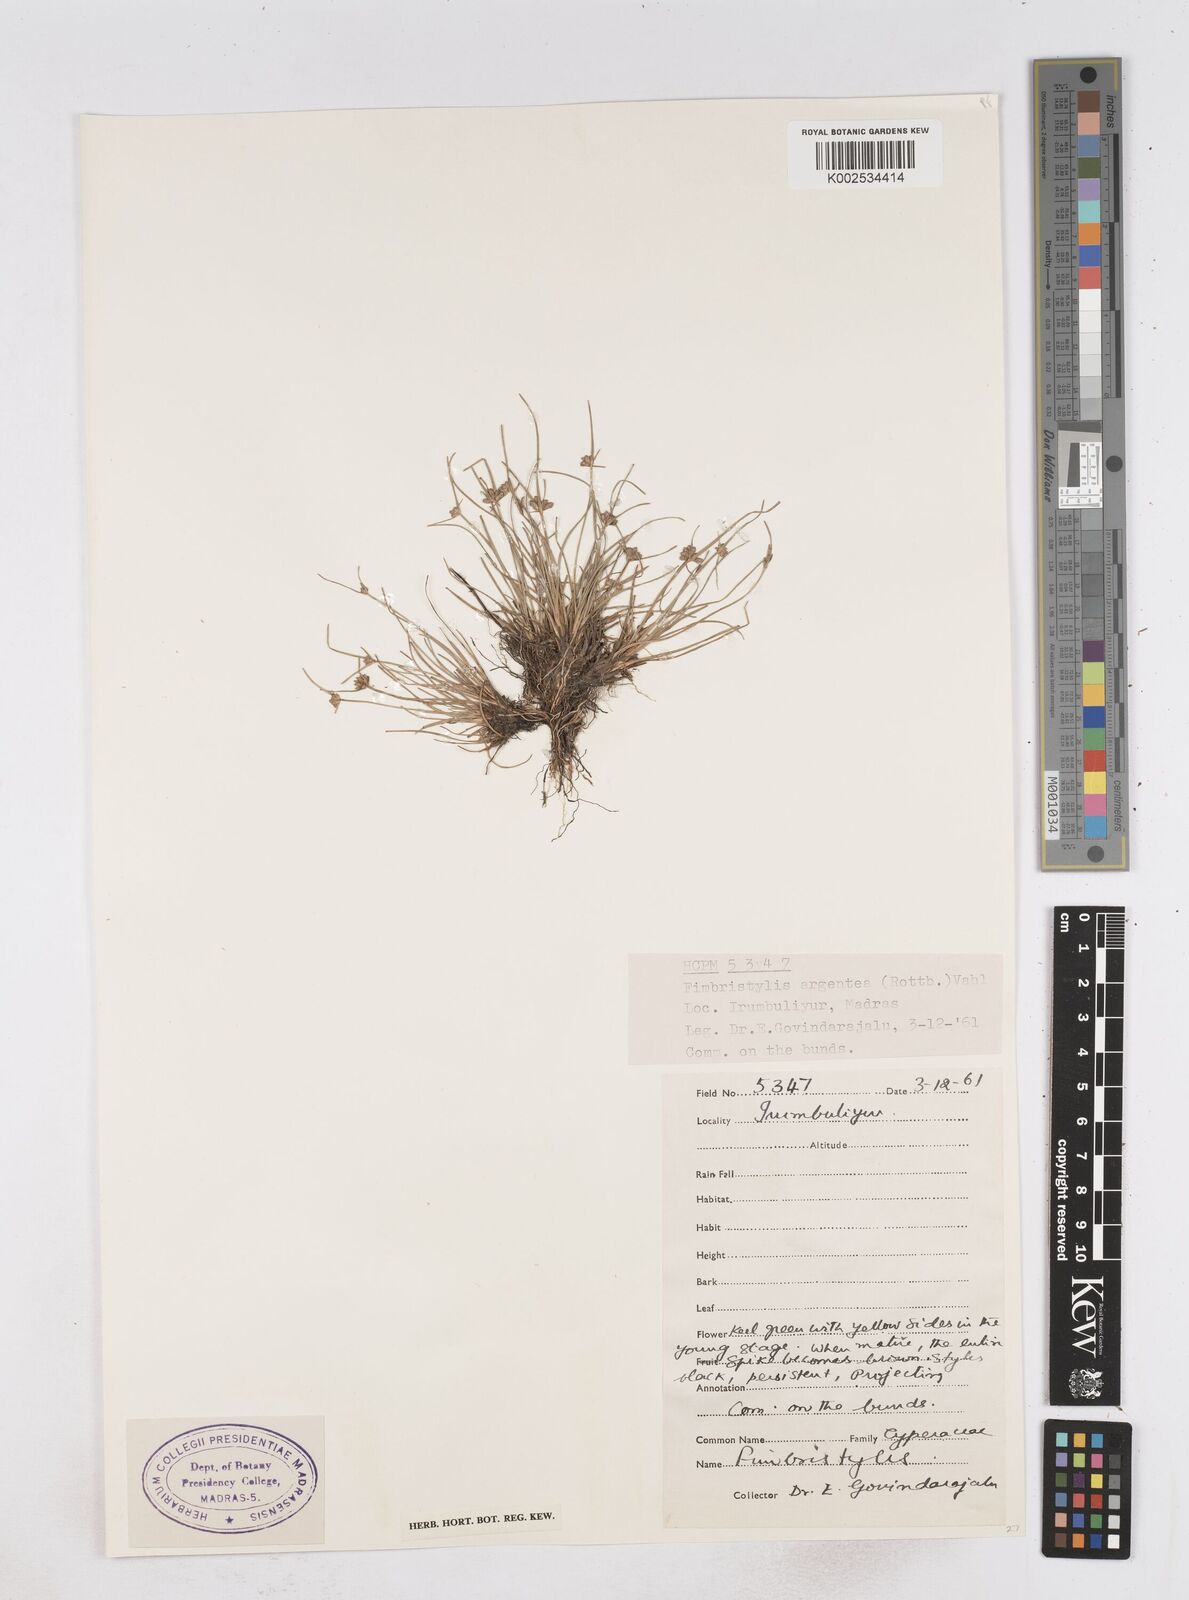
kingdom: Plantae
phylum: Tracheophyta
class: Liliopsida
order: Poales
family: Cyperaceae
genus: Fimbristylis
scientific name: Fimbristylis argentea
